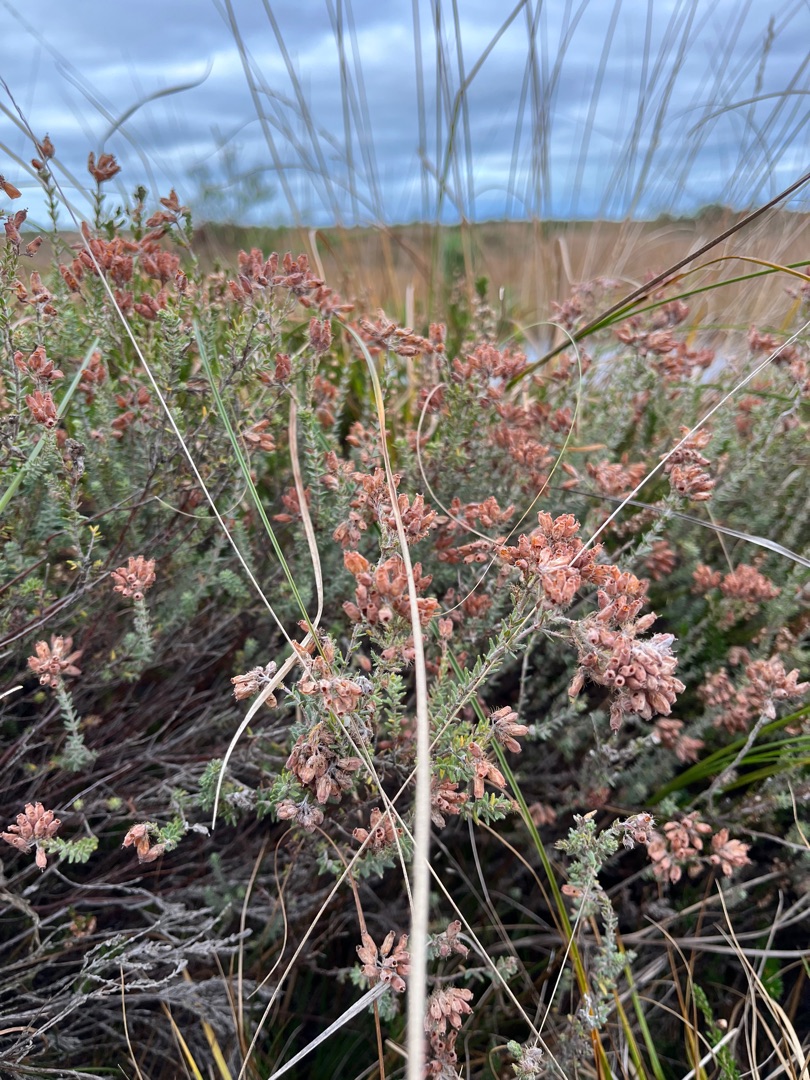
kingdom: Plantae
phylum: Tracheophyta
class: Magnoliopsida
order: Ericales
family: Ericaceae
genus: Erica
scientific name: Erica tetralix
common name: Klokkelyng
